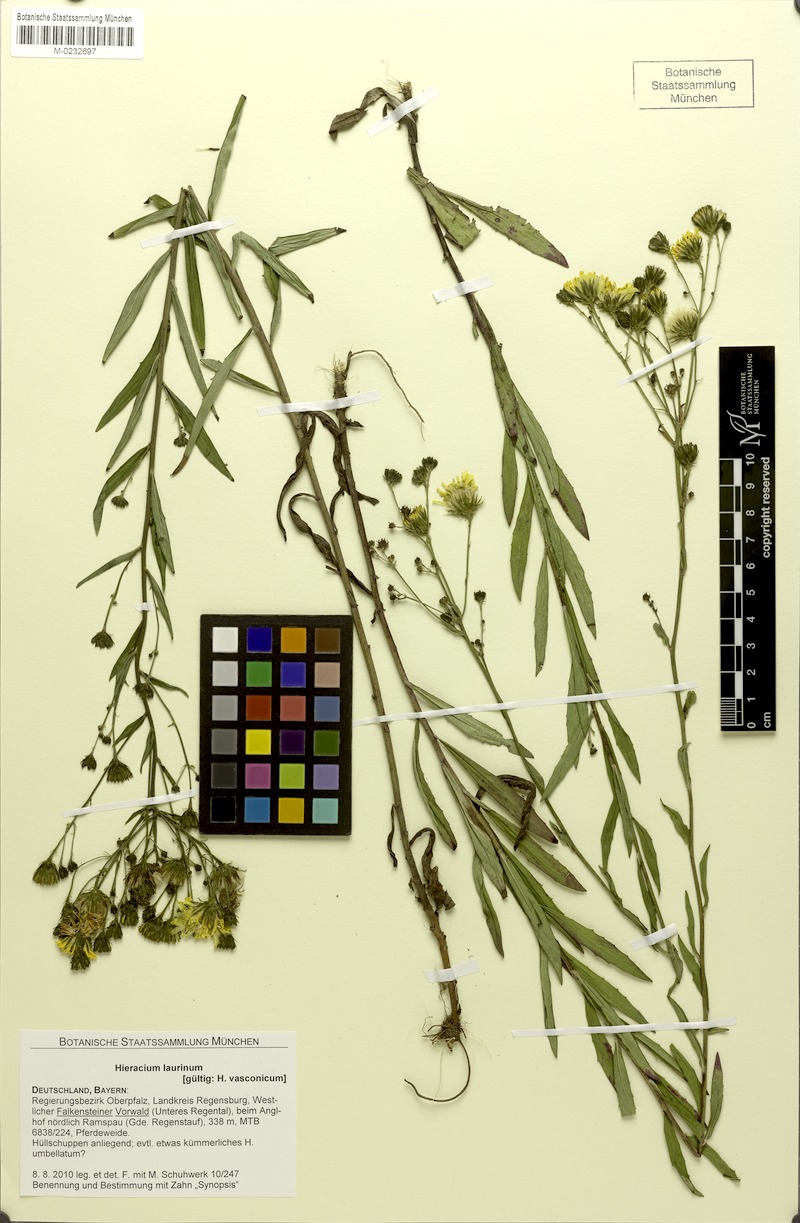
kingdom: Plantae
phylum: Tracheophyta
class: Magnoliopsida
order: Asterales
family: Asteraceae
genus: Hieracium
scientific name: Hieracium vasconicum
